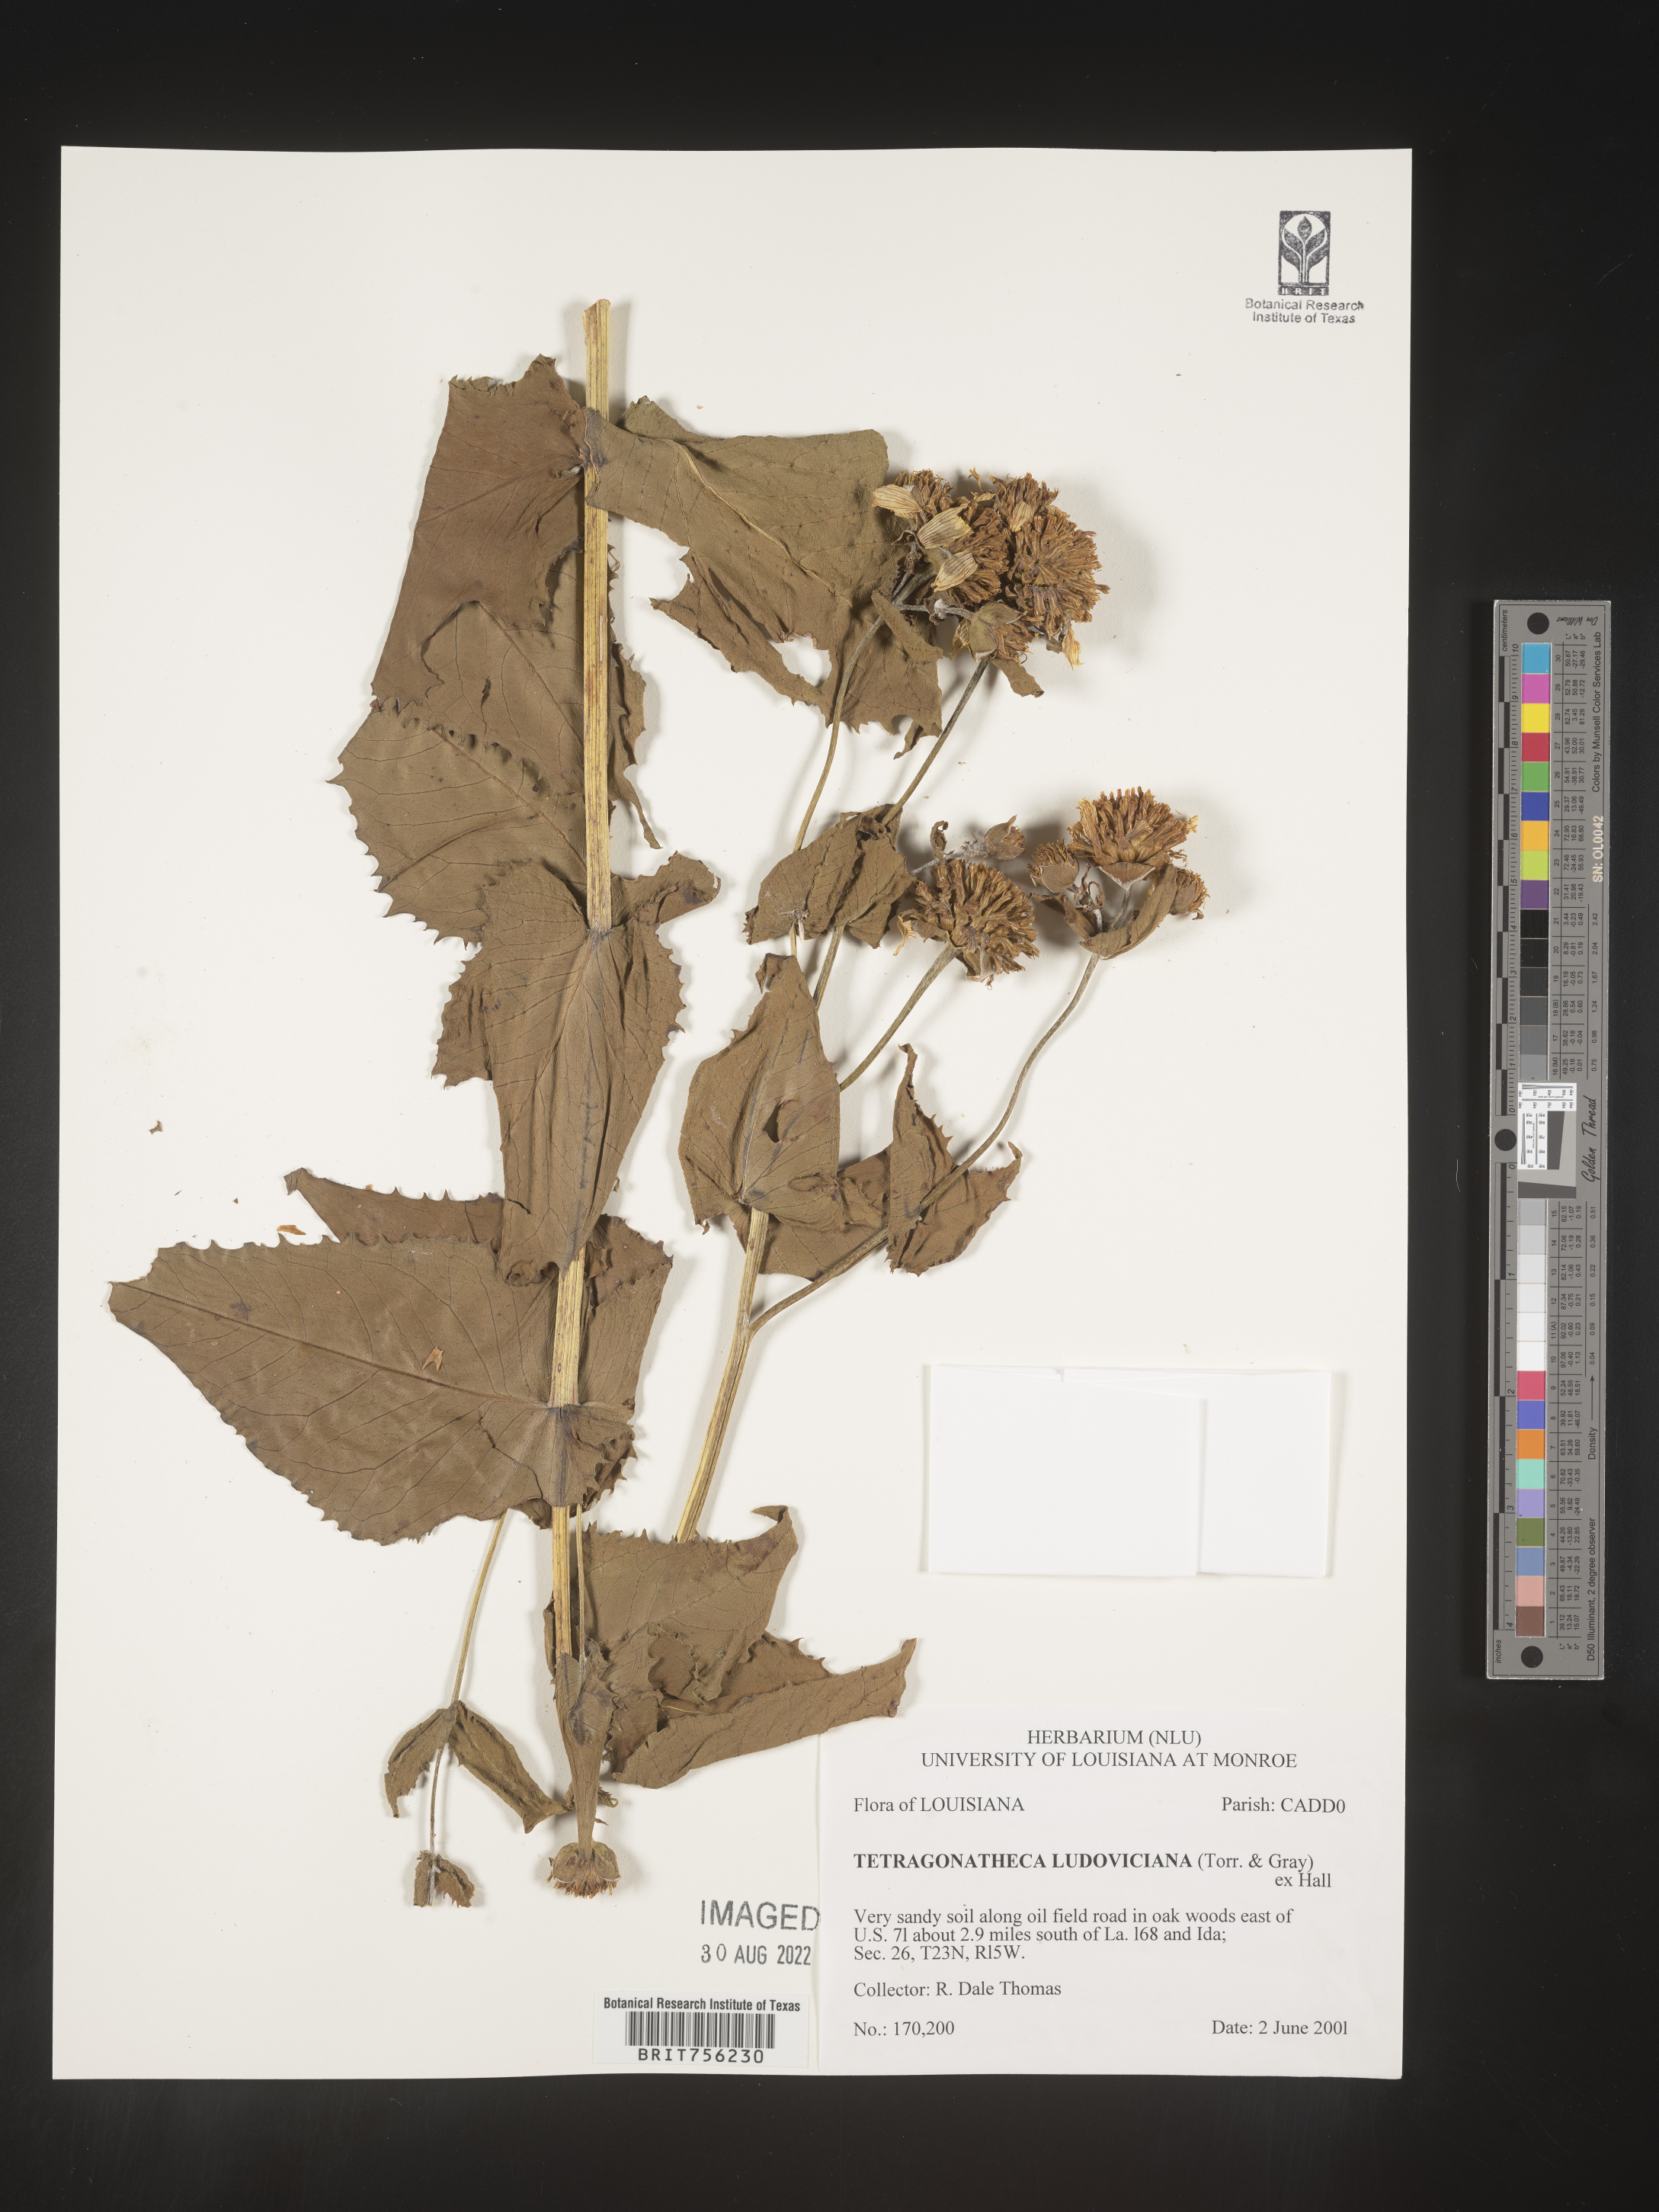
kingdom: Plantae
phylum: Tracheophyta
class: Magnoliopsida
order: Asterales
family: Asteraceae
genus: Tetragonotheca
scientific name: Tetragonotheca
